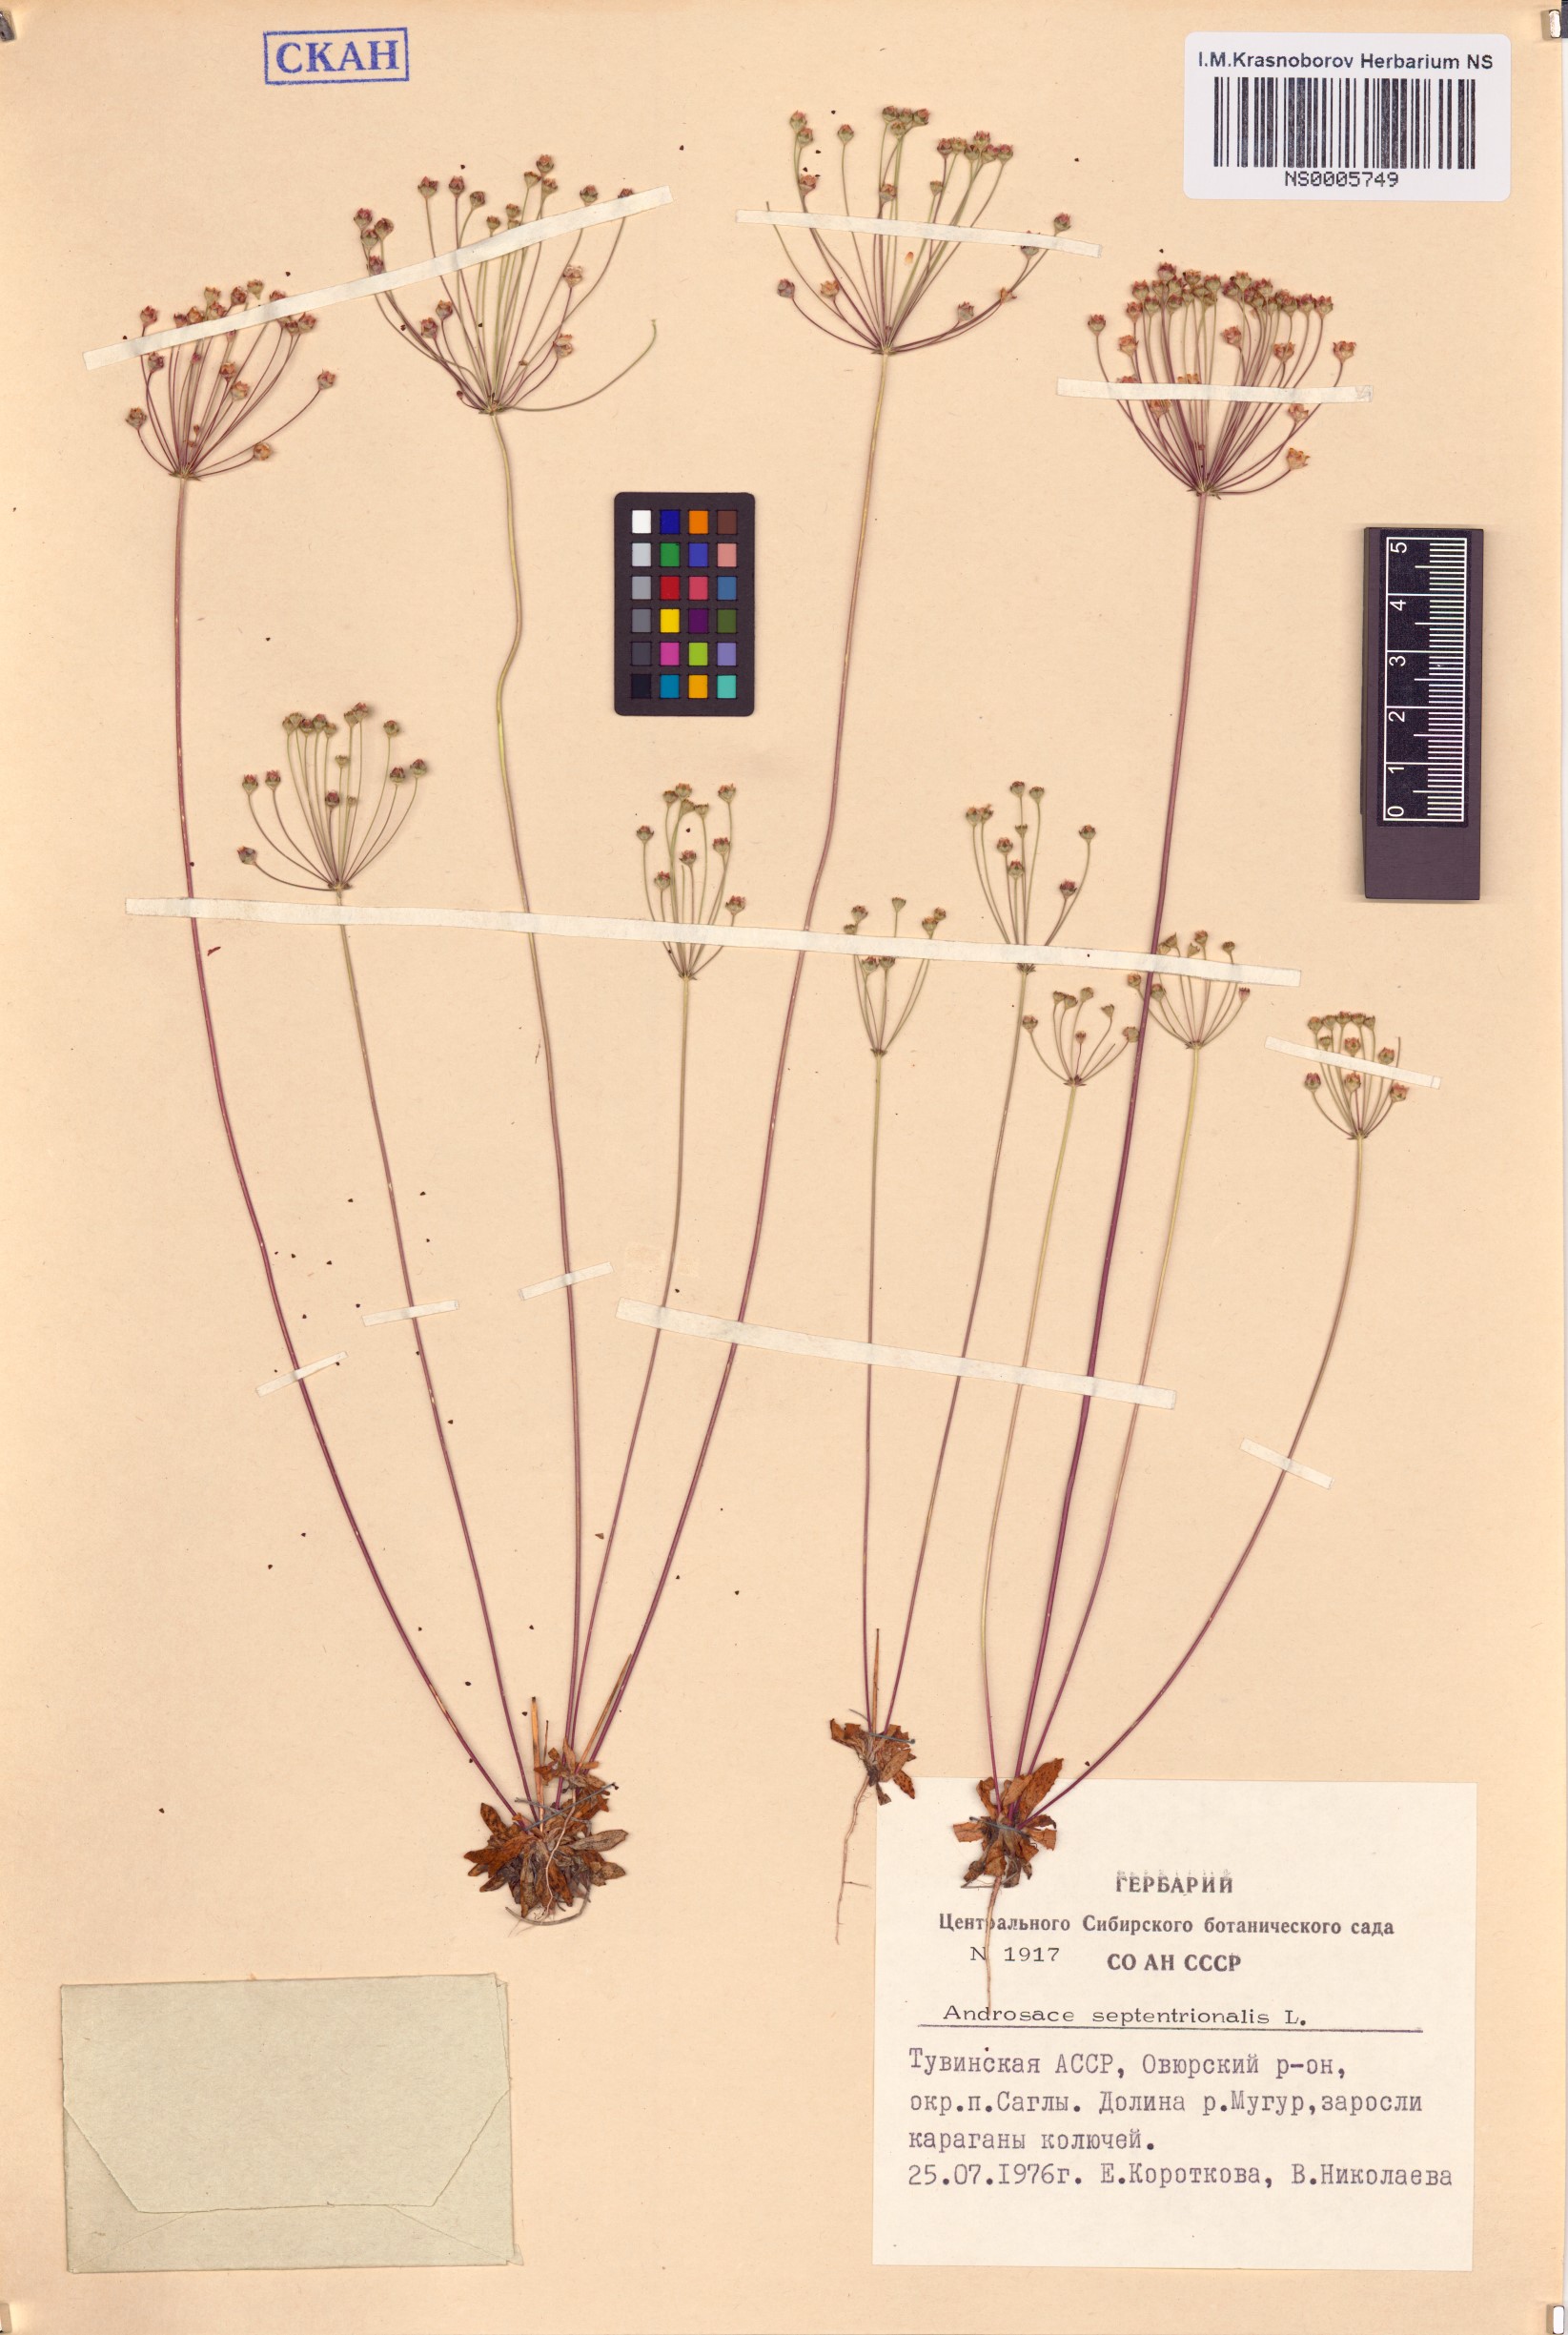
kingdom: Plantae
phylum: Tracheophyta
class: Magnoliopsida
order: Ericales
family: Primulaceae
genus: Androsace
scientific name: Androsace septentrionalis
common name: Hairy northern fairy-candelabra
